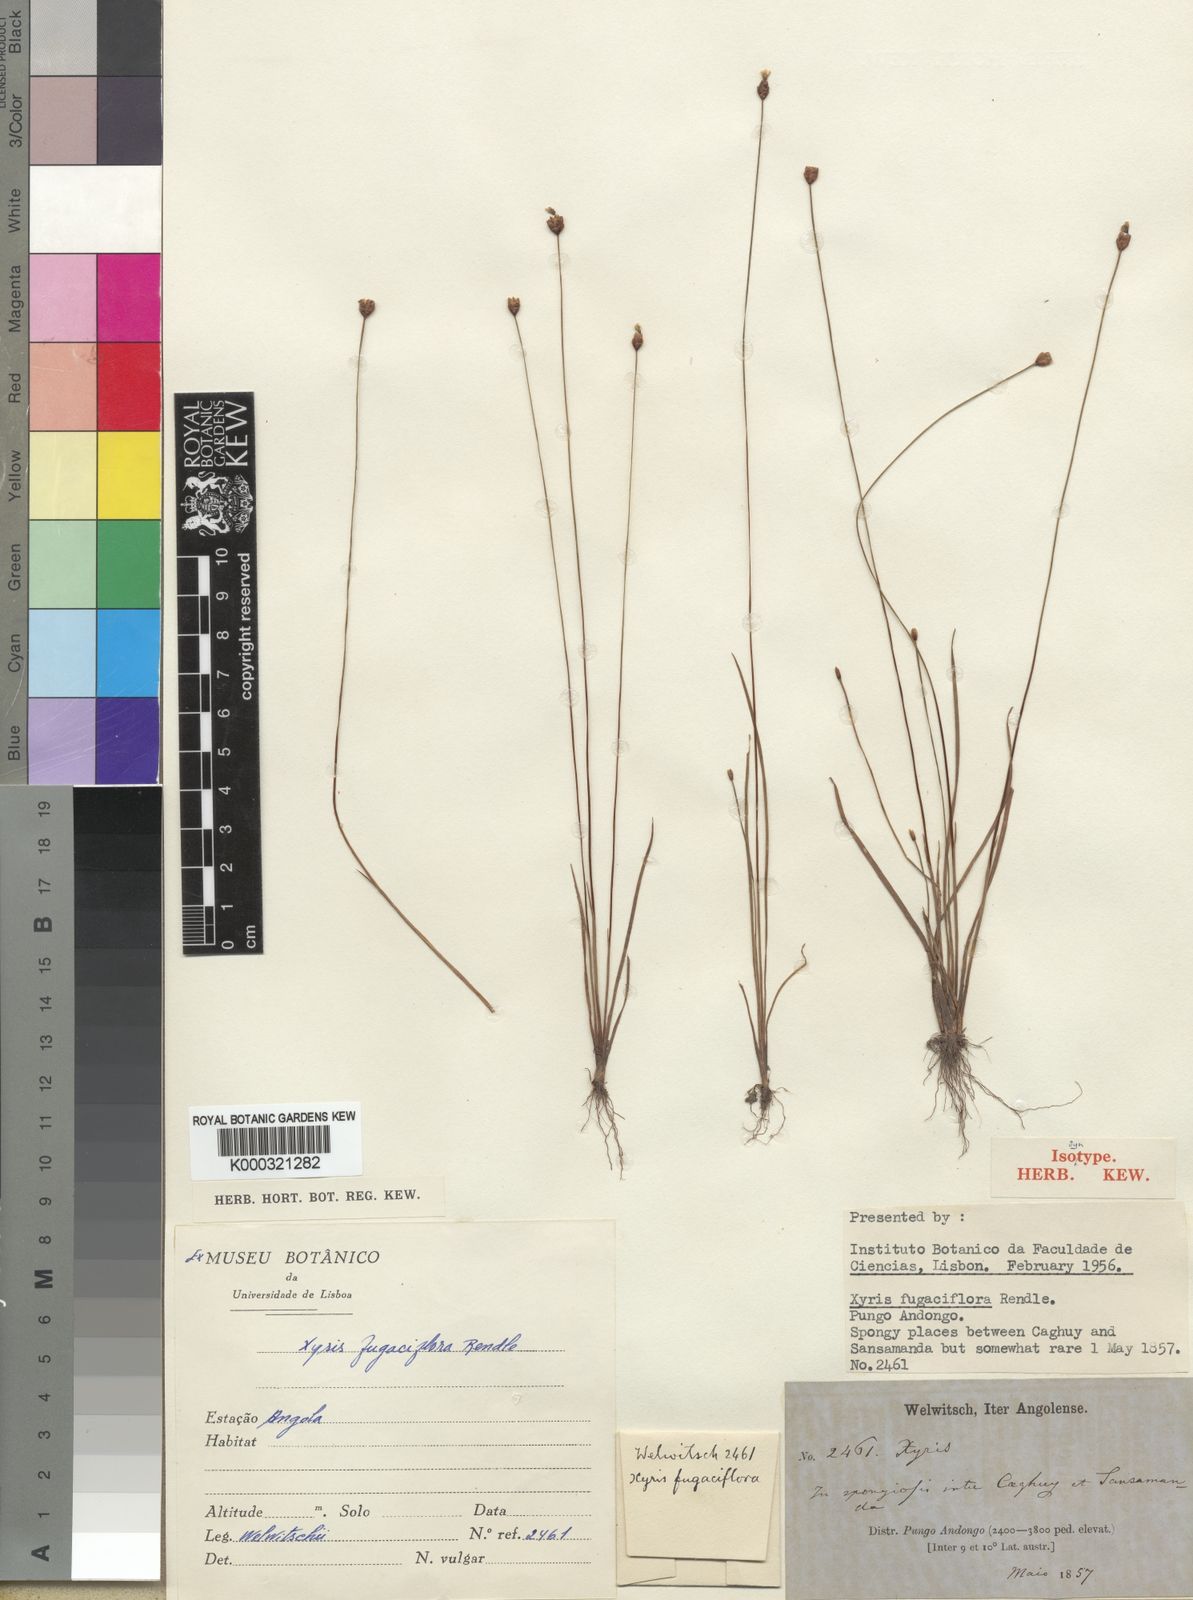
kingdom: Plantae
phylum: Tracheophyta
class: Liliopsida
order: Poales
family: Xyridaceae
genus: Xyris
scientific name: Xyris fugaciflora
